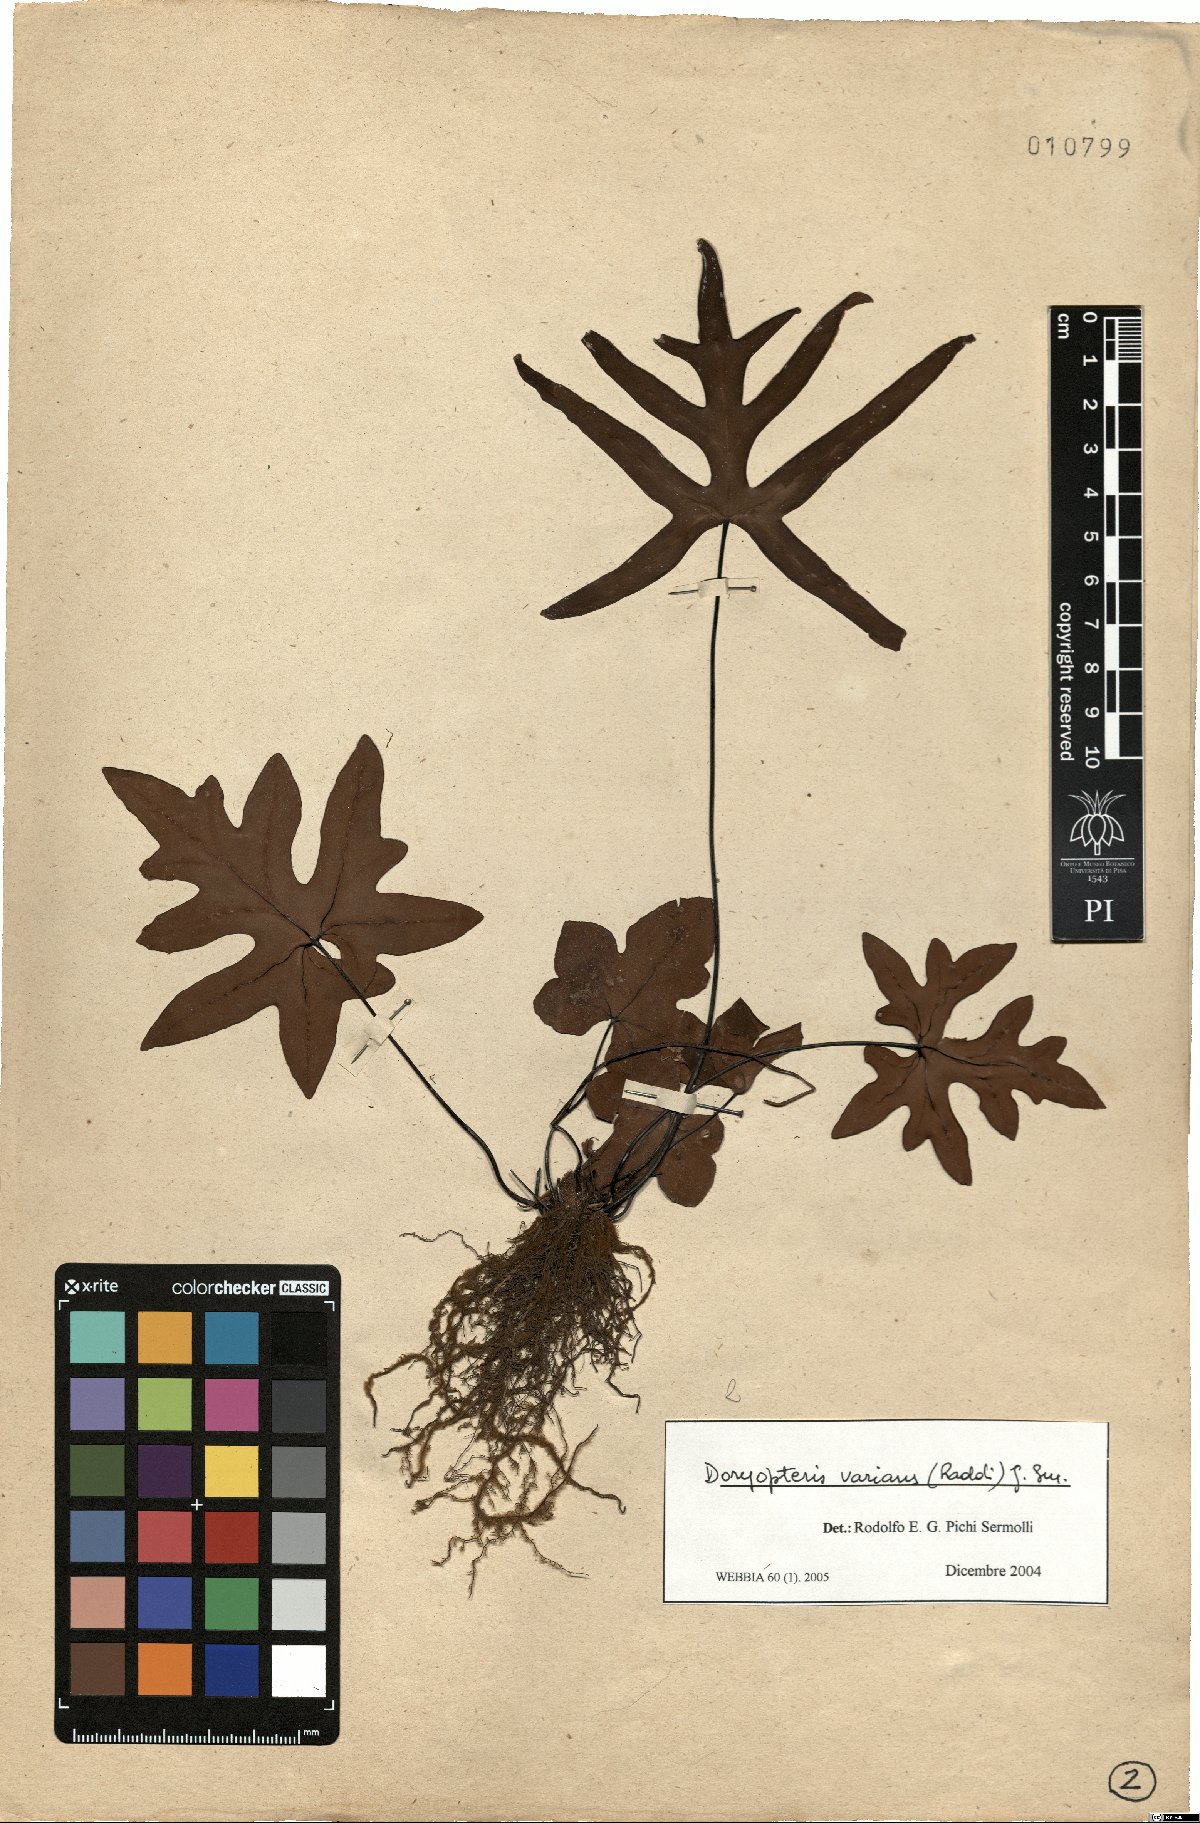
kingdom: Plantae
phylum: Tracheophyta
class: Polypodiopsida
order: Polypodiales
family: Pteridaceae
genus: Doryopteris
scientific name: Doryopteris varians
